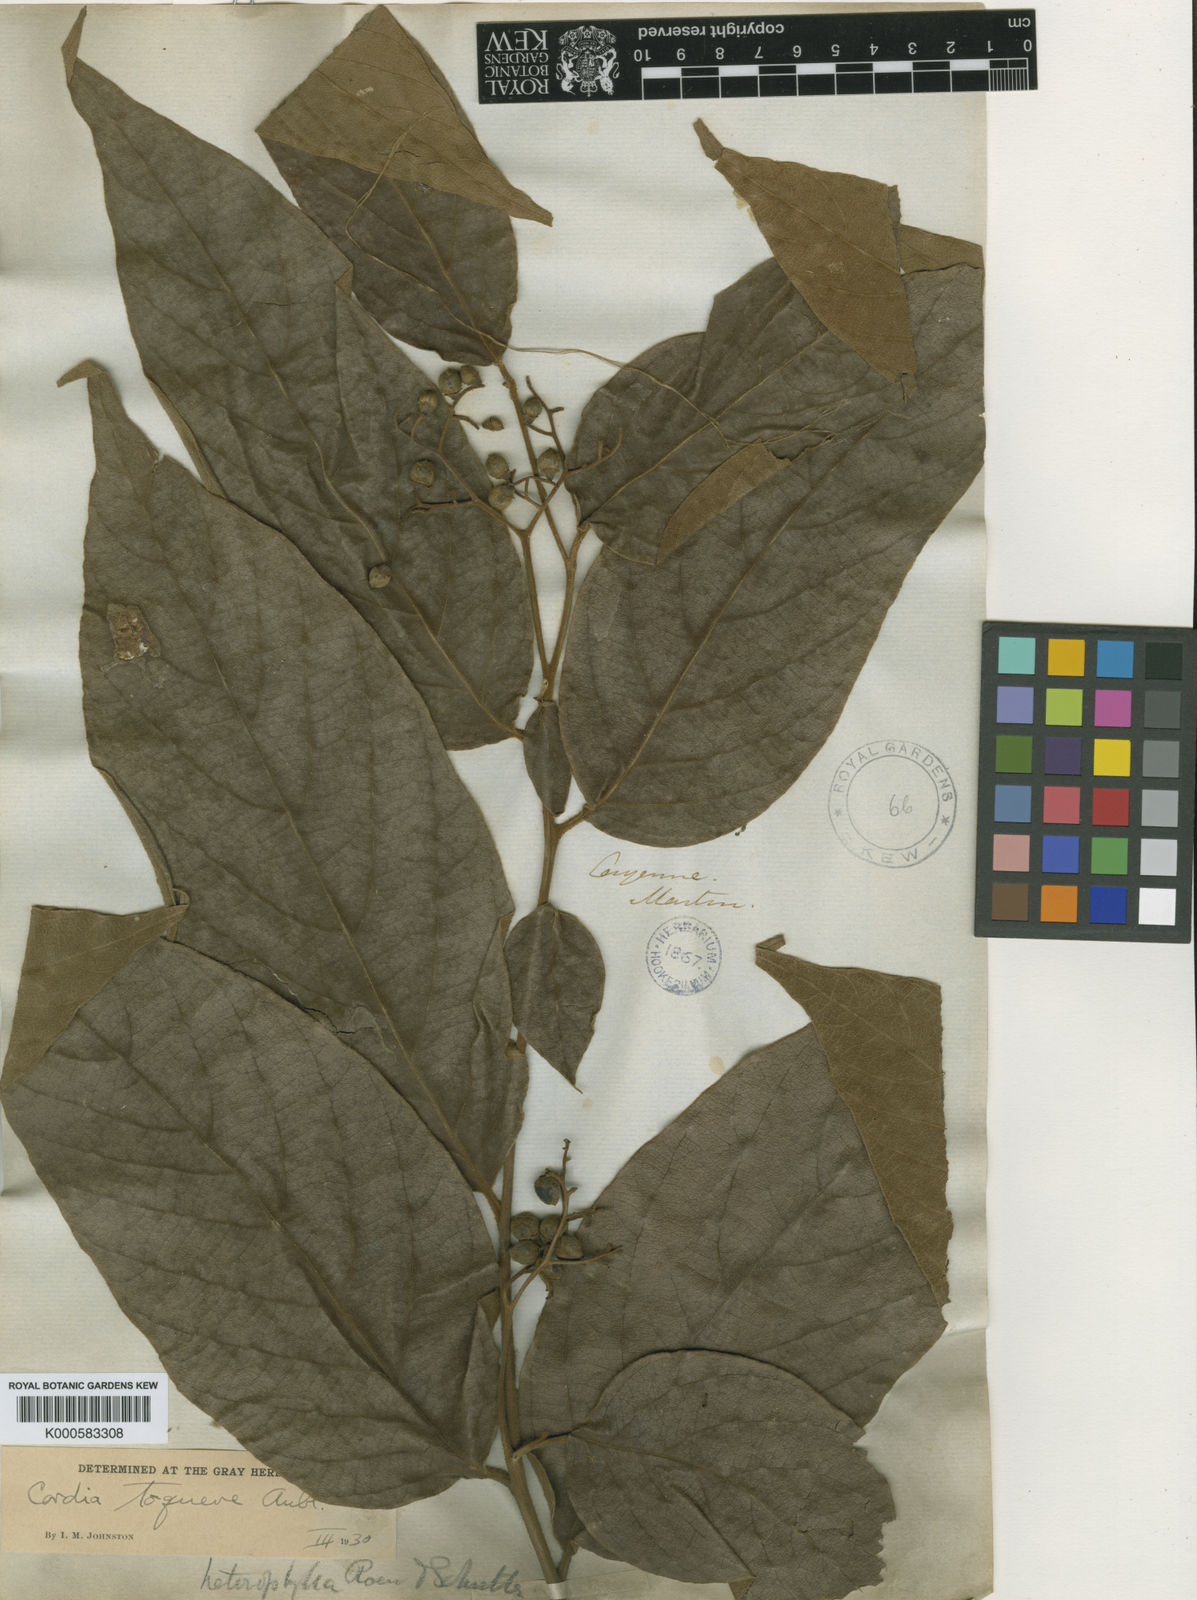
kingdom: Plantae
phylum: Tracheophyta
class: Magnoliopsida
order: Boraginales
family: Cordiaceae
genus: Cordia
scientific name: Cordia toqueve
